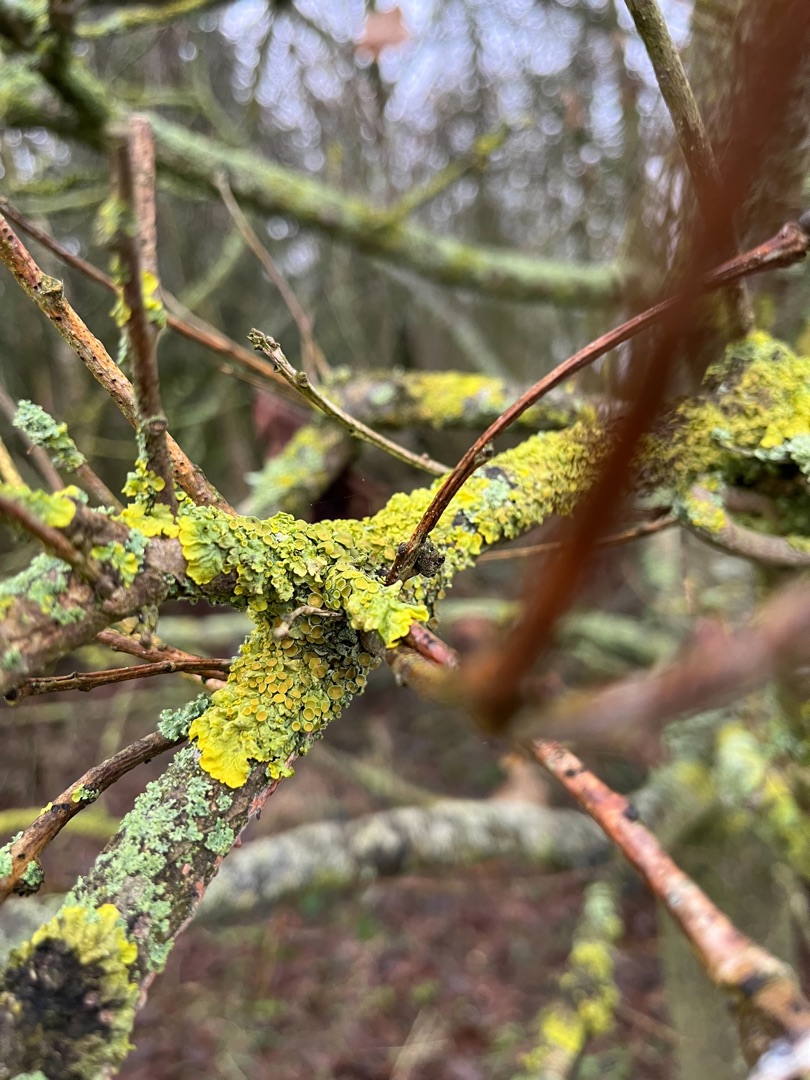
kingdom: Fungi
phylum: Ascomycota
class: Lecanoromycetes
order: Teloschistales
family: Teloschistaceae
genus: Xanthoria
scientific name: Xanthoria parietina
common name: Almindelig væggelav
